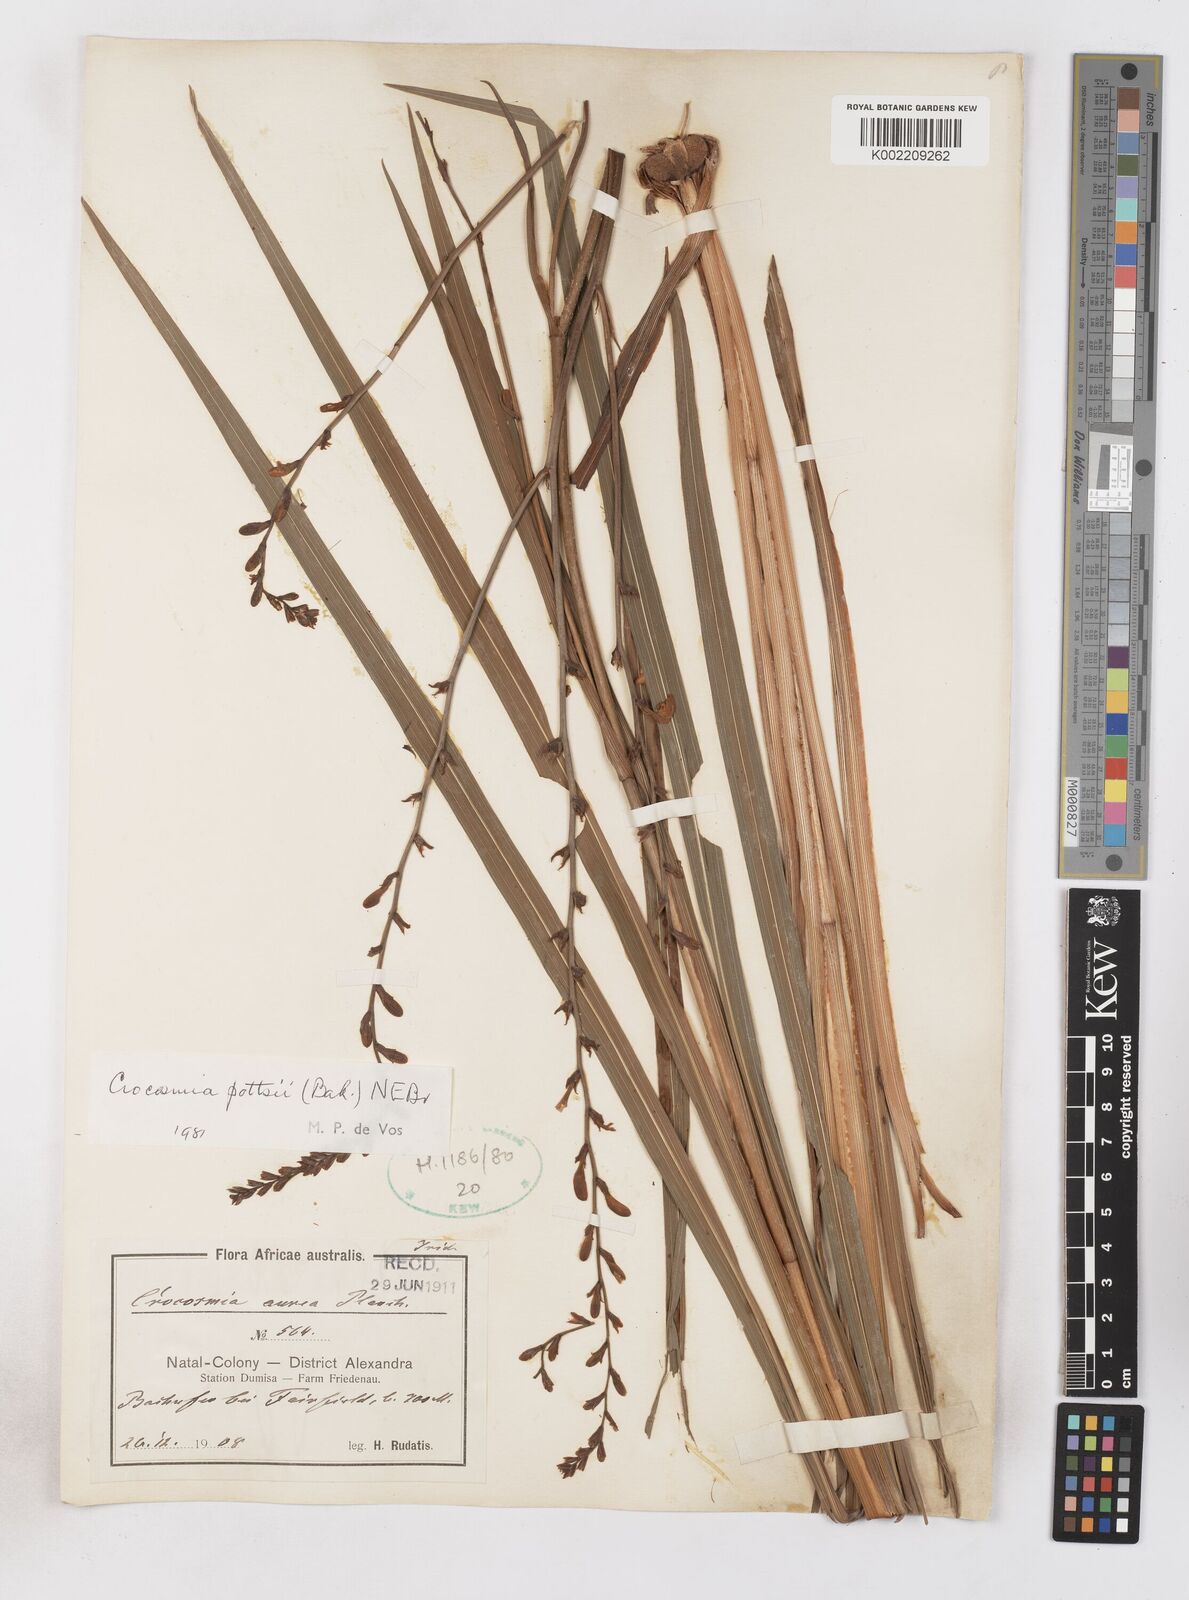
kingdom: Plantae
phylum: Tracheophyta
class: Liliopsida
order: Asparagales
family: Iridaceae
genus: Crocosmia
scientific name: Crocosmia pottsii
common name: Pott's montbretia
